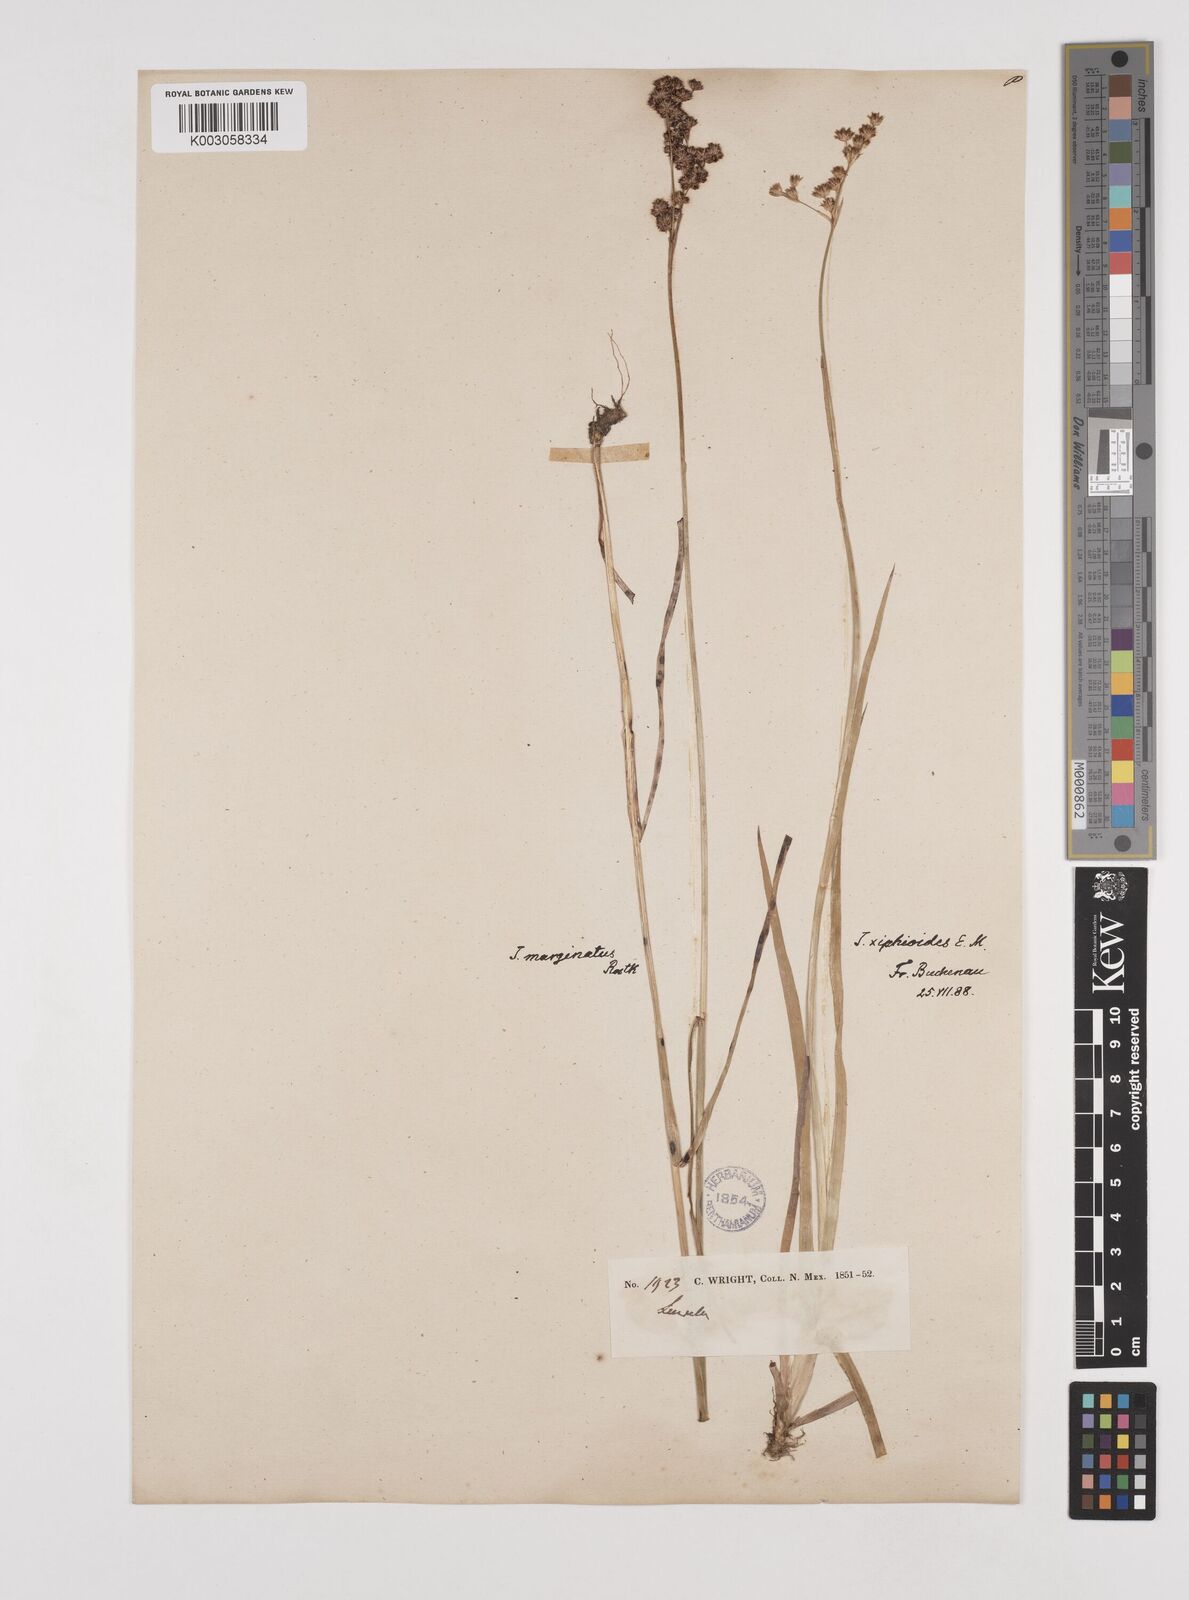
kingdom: Plantae
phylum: Tracheophyta
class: Liliopsida
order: Poales
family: Juncaceae
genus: Juncus
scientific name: Juncus xiphioides
